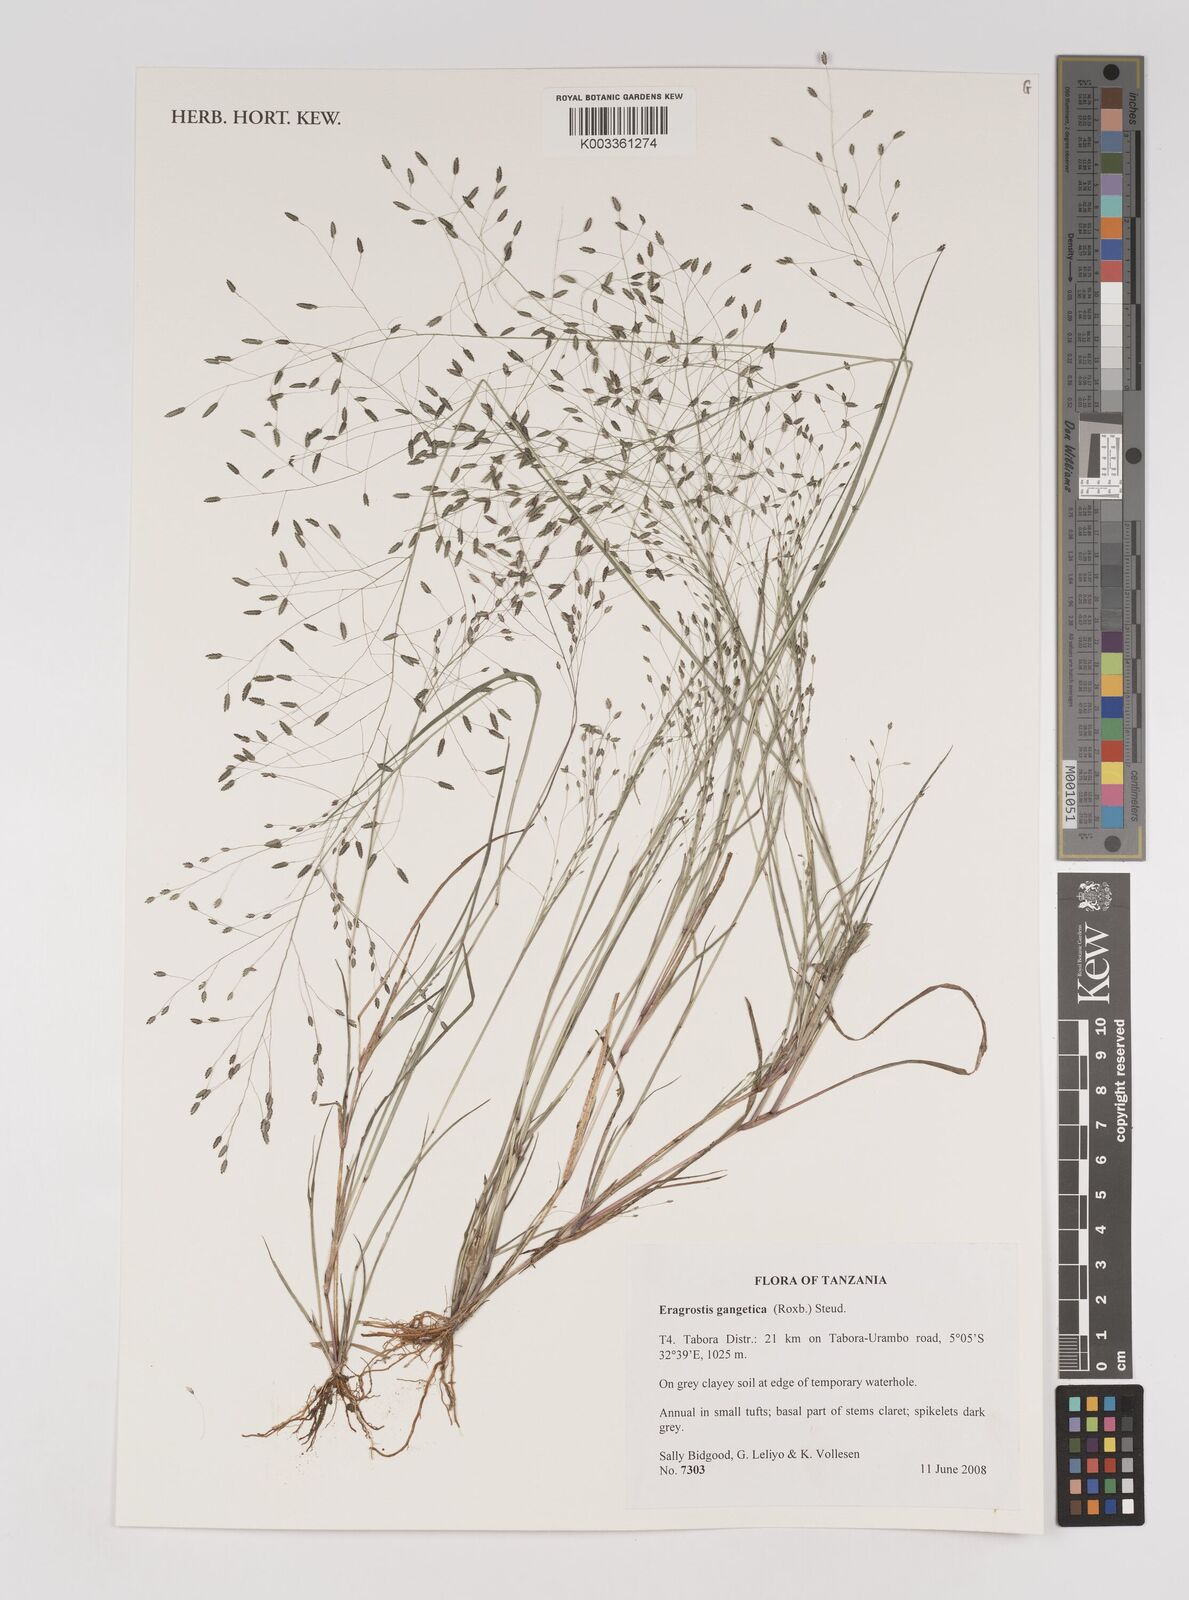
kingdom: Plantae
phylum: Tracheophyta
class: Liliopsida
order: Poales
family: Poaceae
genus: Eragrostis
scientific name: Eragrostis gangetica
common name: Slimflower lovegrass
